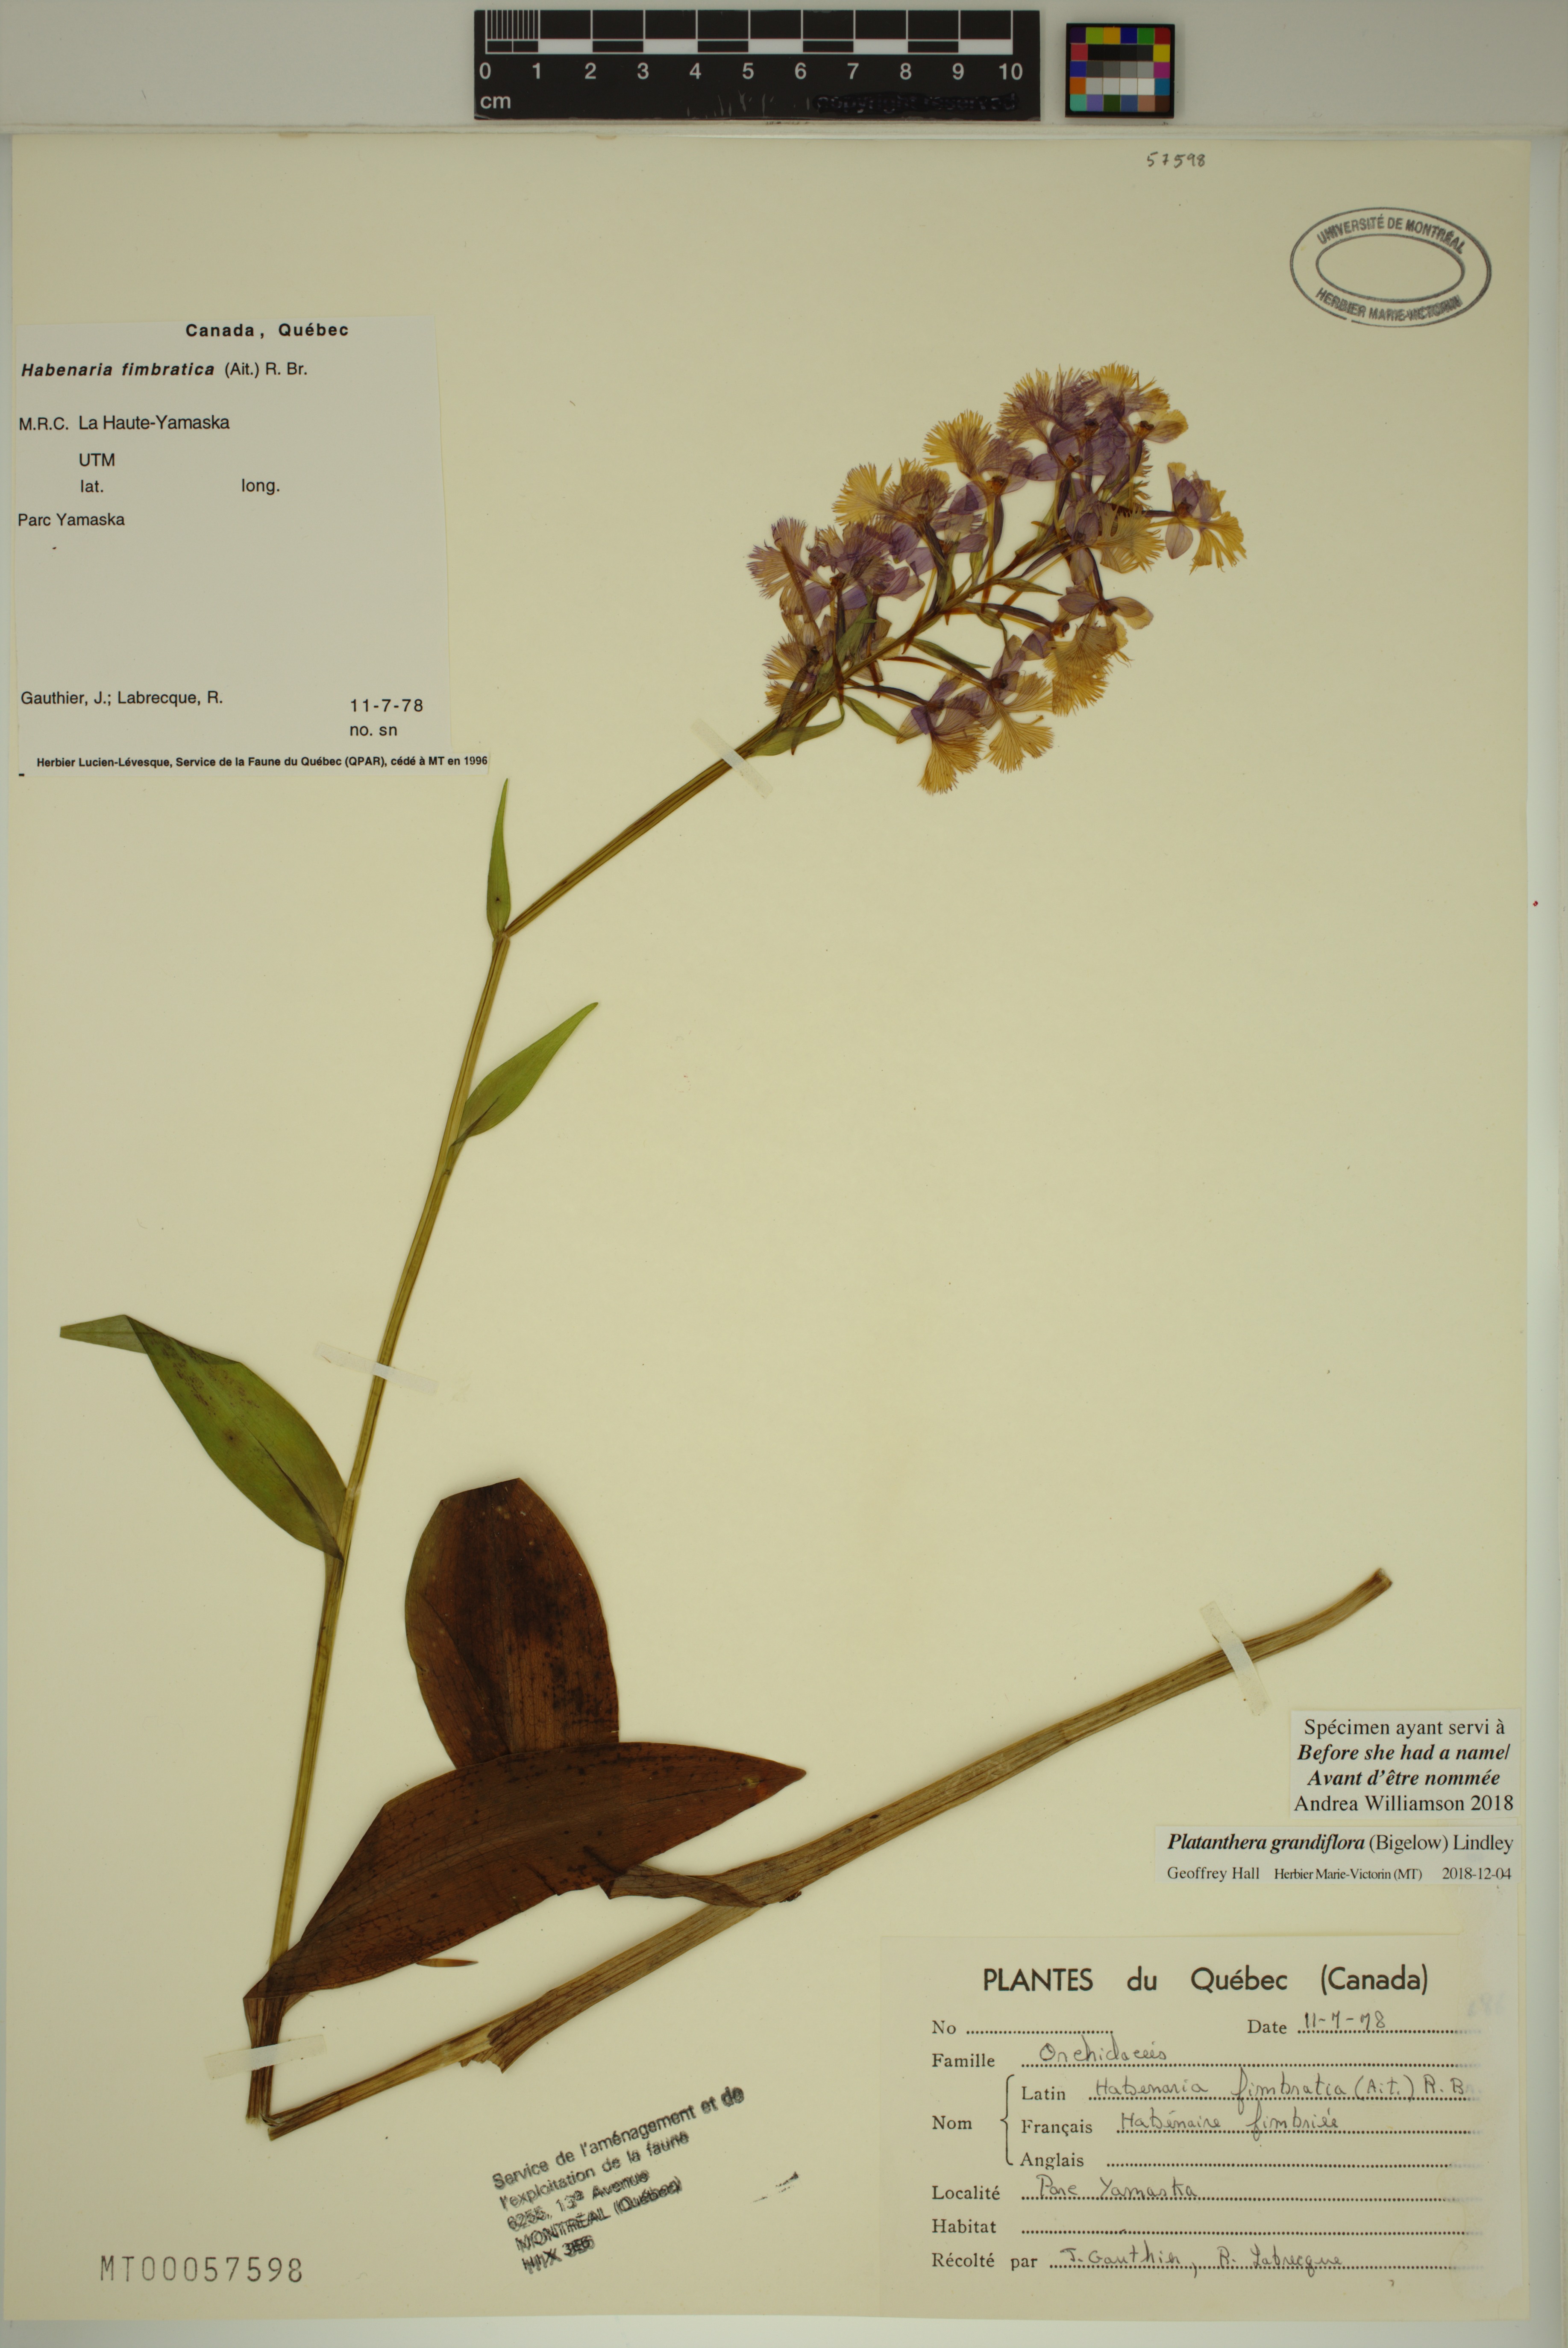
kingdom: Plantae
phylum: Tracheophyta
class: Liliopsida
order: Asparagales
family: Orchidaceae
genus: Platanthera
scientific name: Platanthera grandiflora
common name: Greater purple fringed orchid
